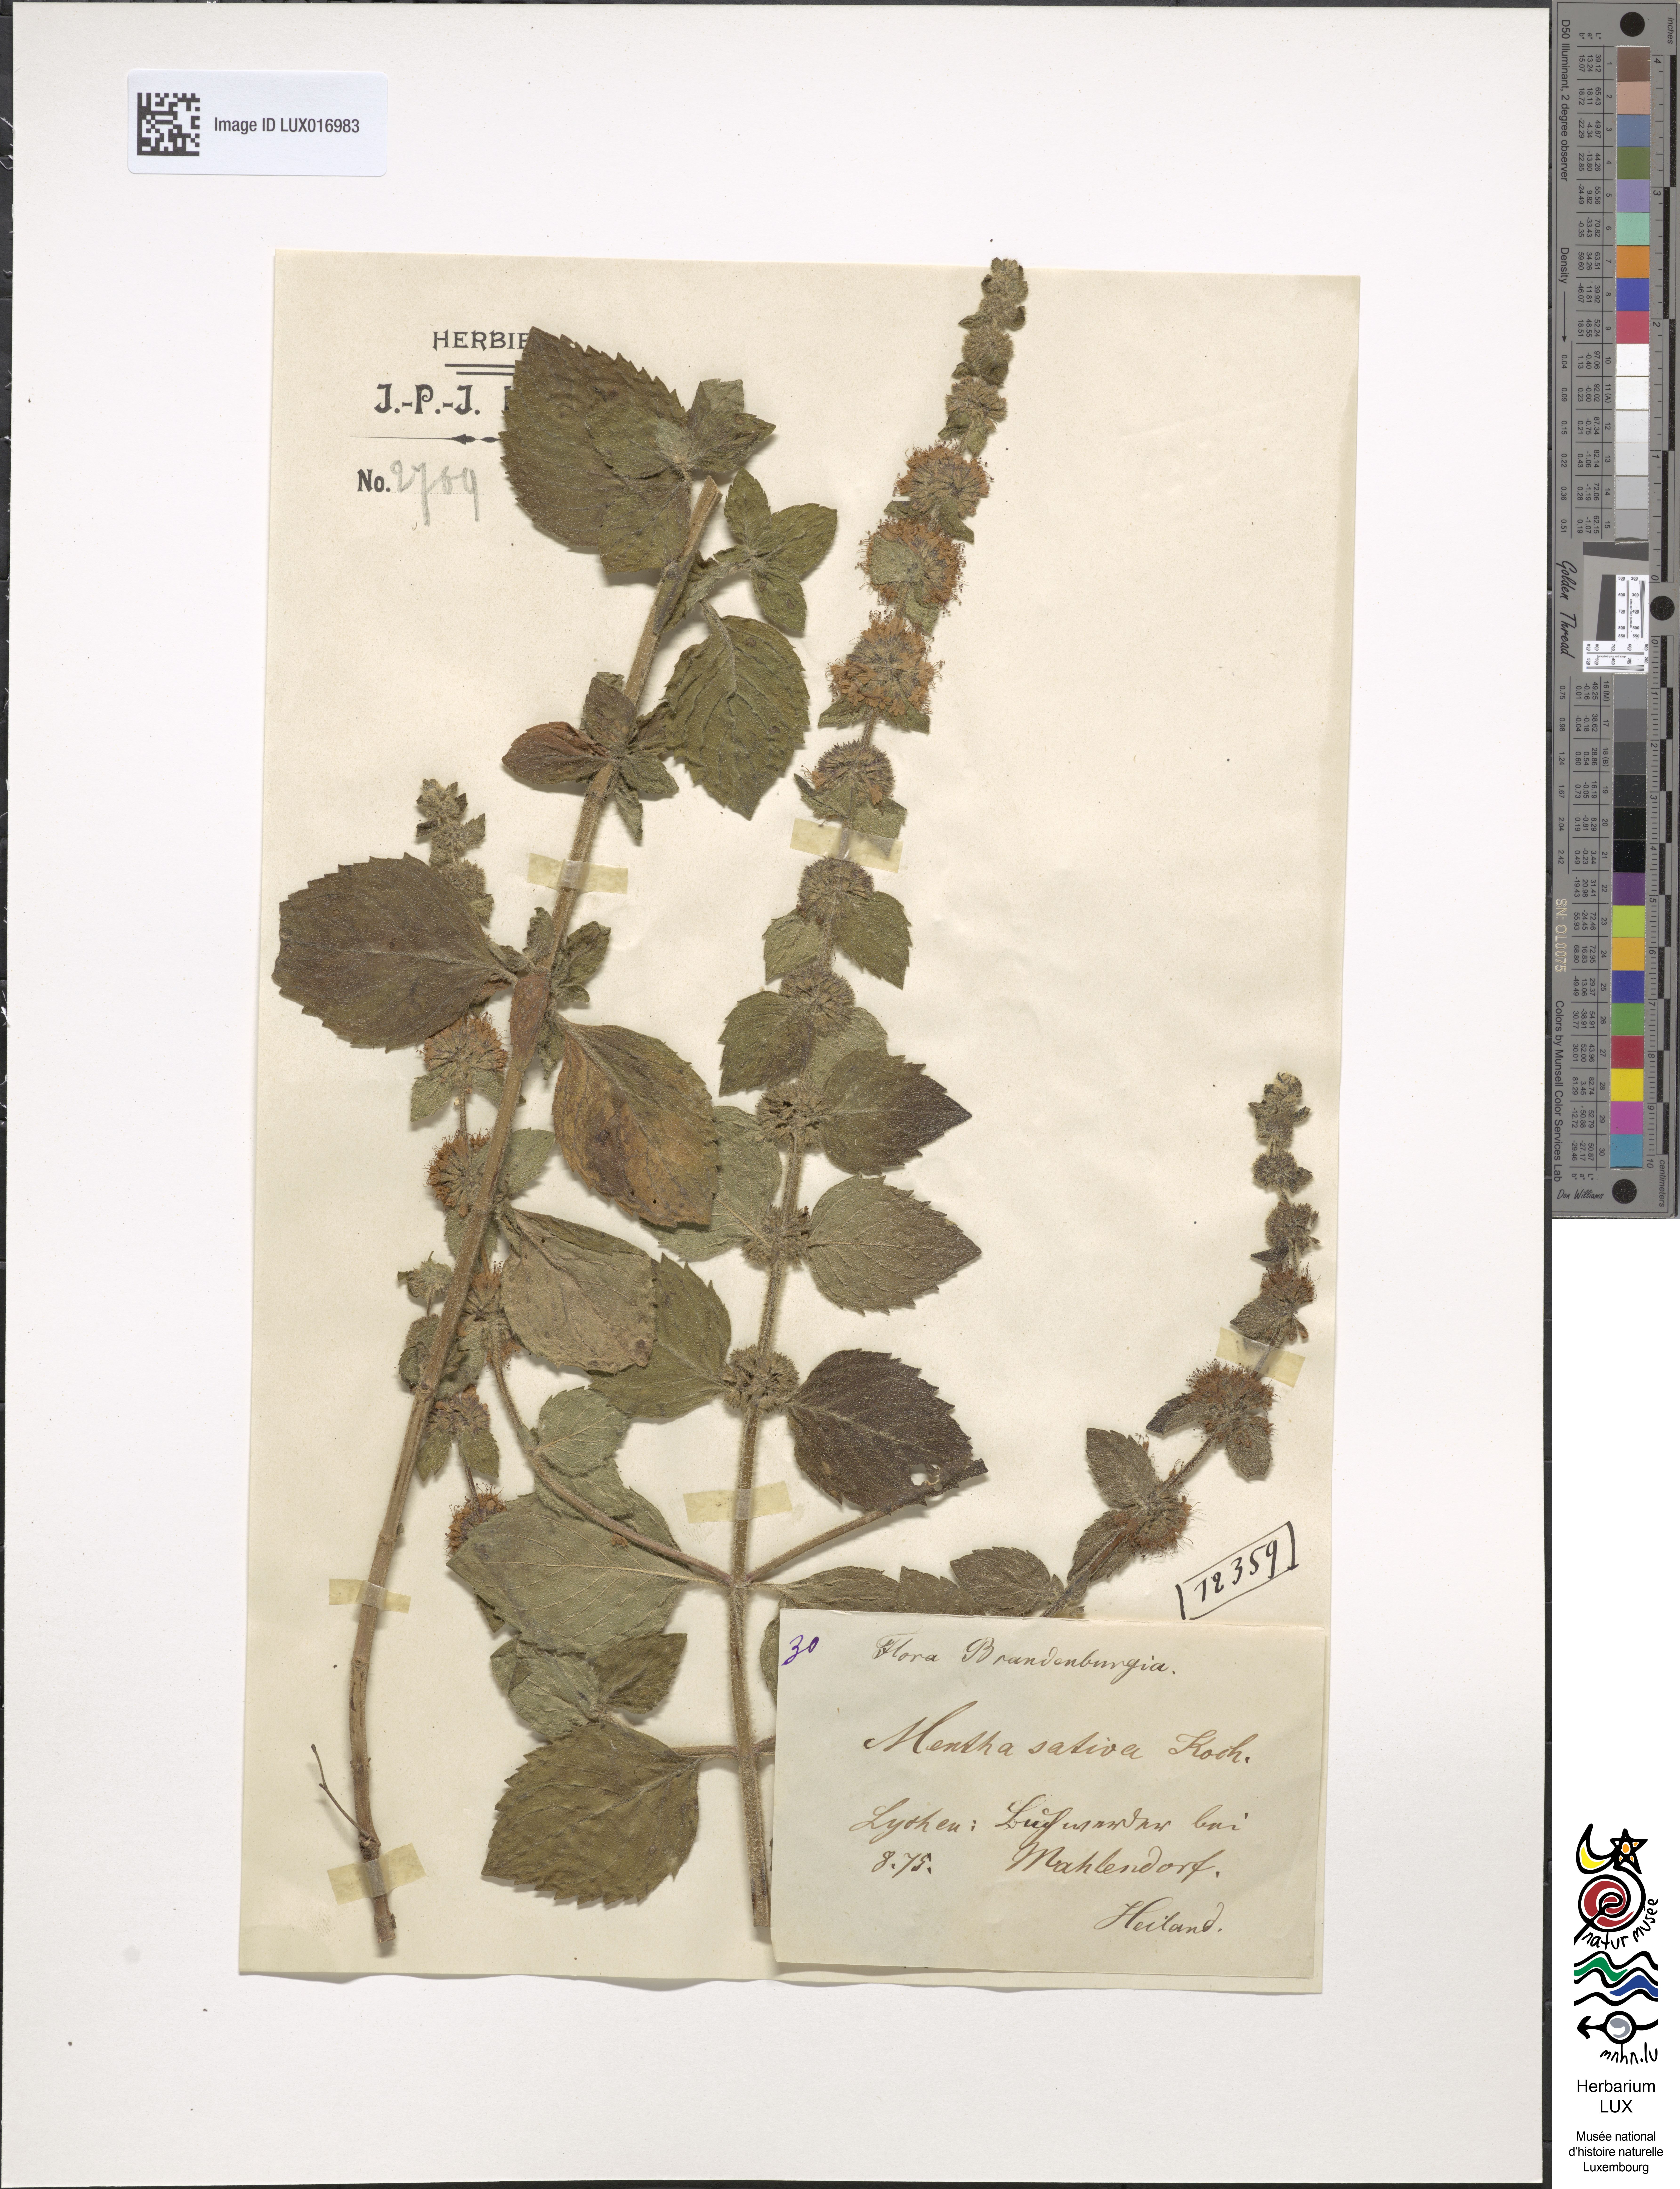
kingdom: Plantae
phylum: Tracheophyta
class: Magnoliopsida
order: Lamiales
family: Lamiaceae
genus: Mentha
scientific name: Mentha verticillata
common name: Mint
